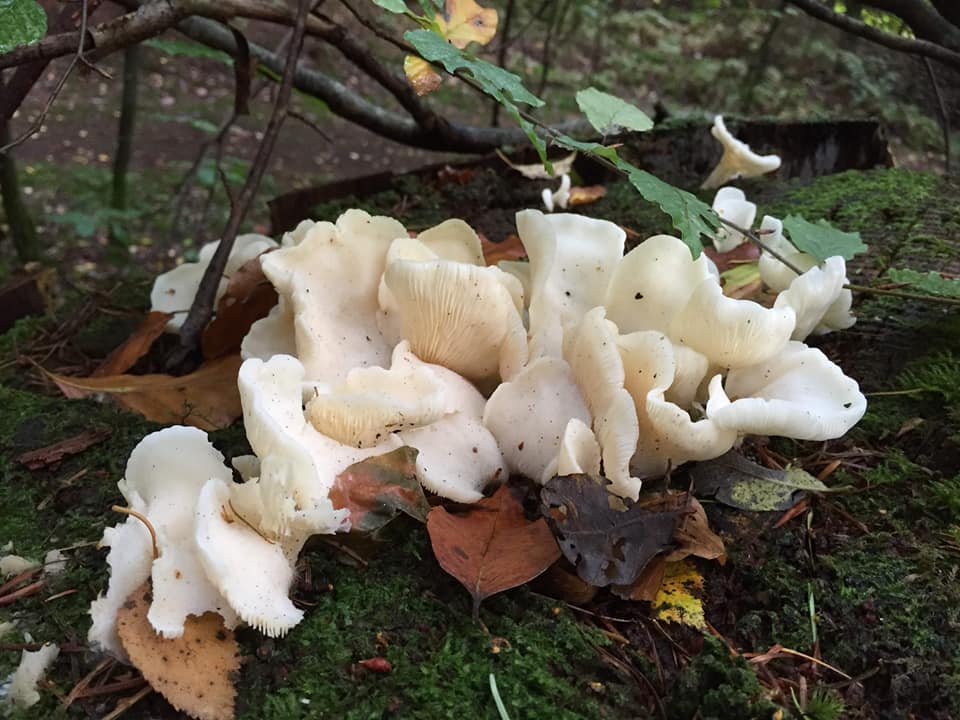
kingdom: Fungi
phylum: Basidiomycota
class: Agaricomycetes
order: Agaricales
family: Marasmiaceae
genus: Pleurocybella
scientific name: Pleurocybella porrigens
